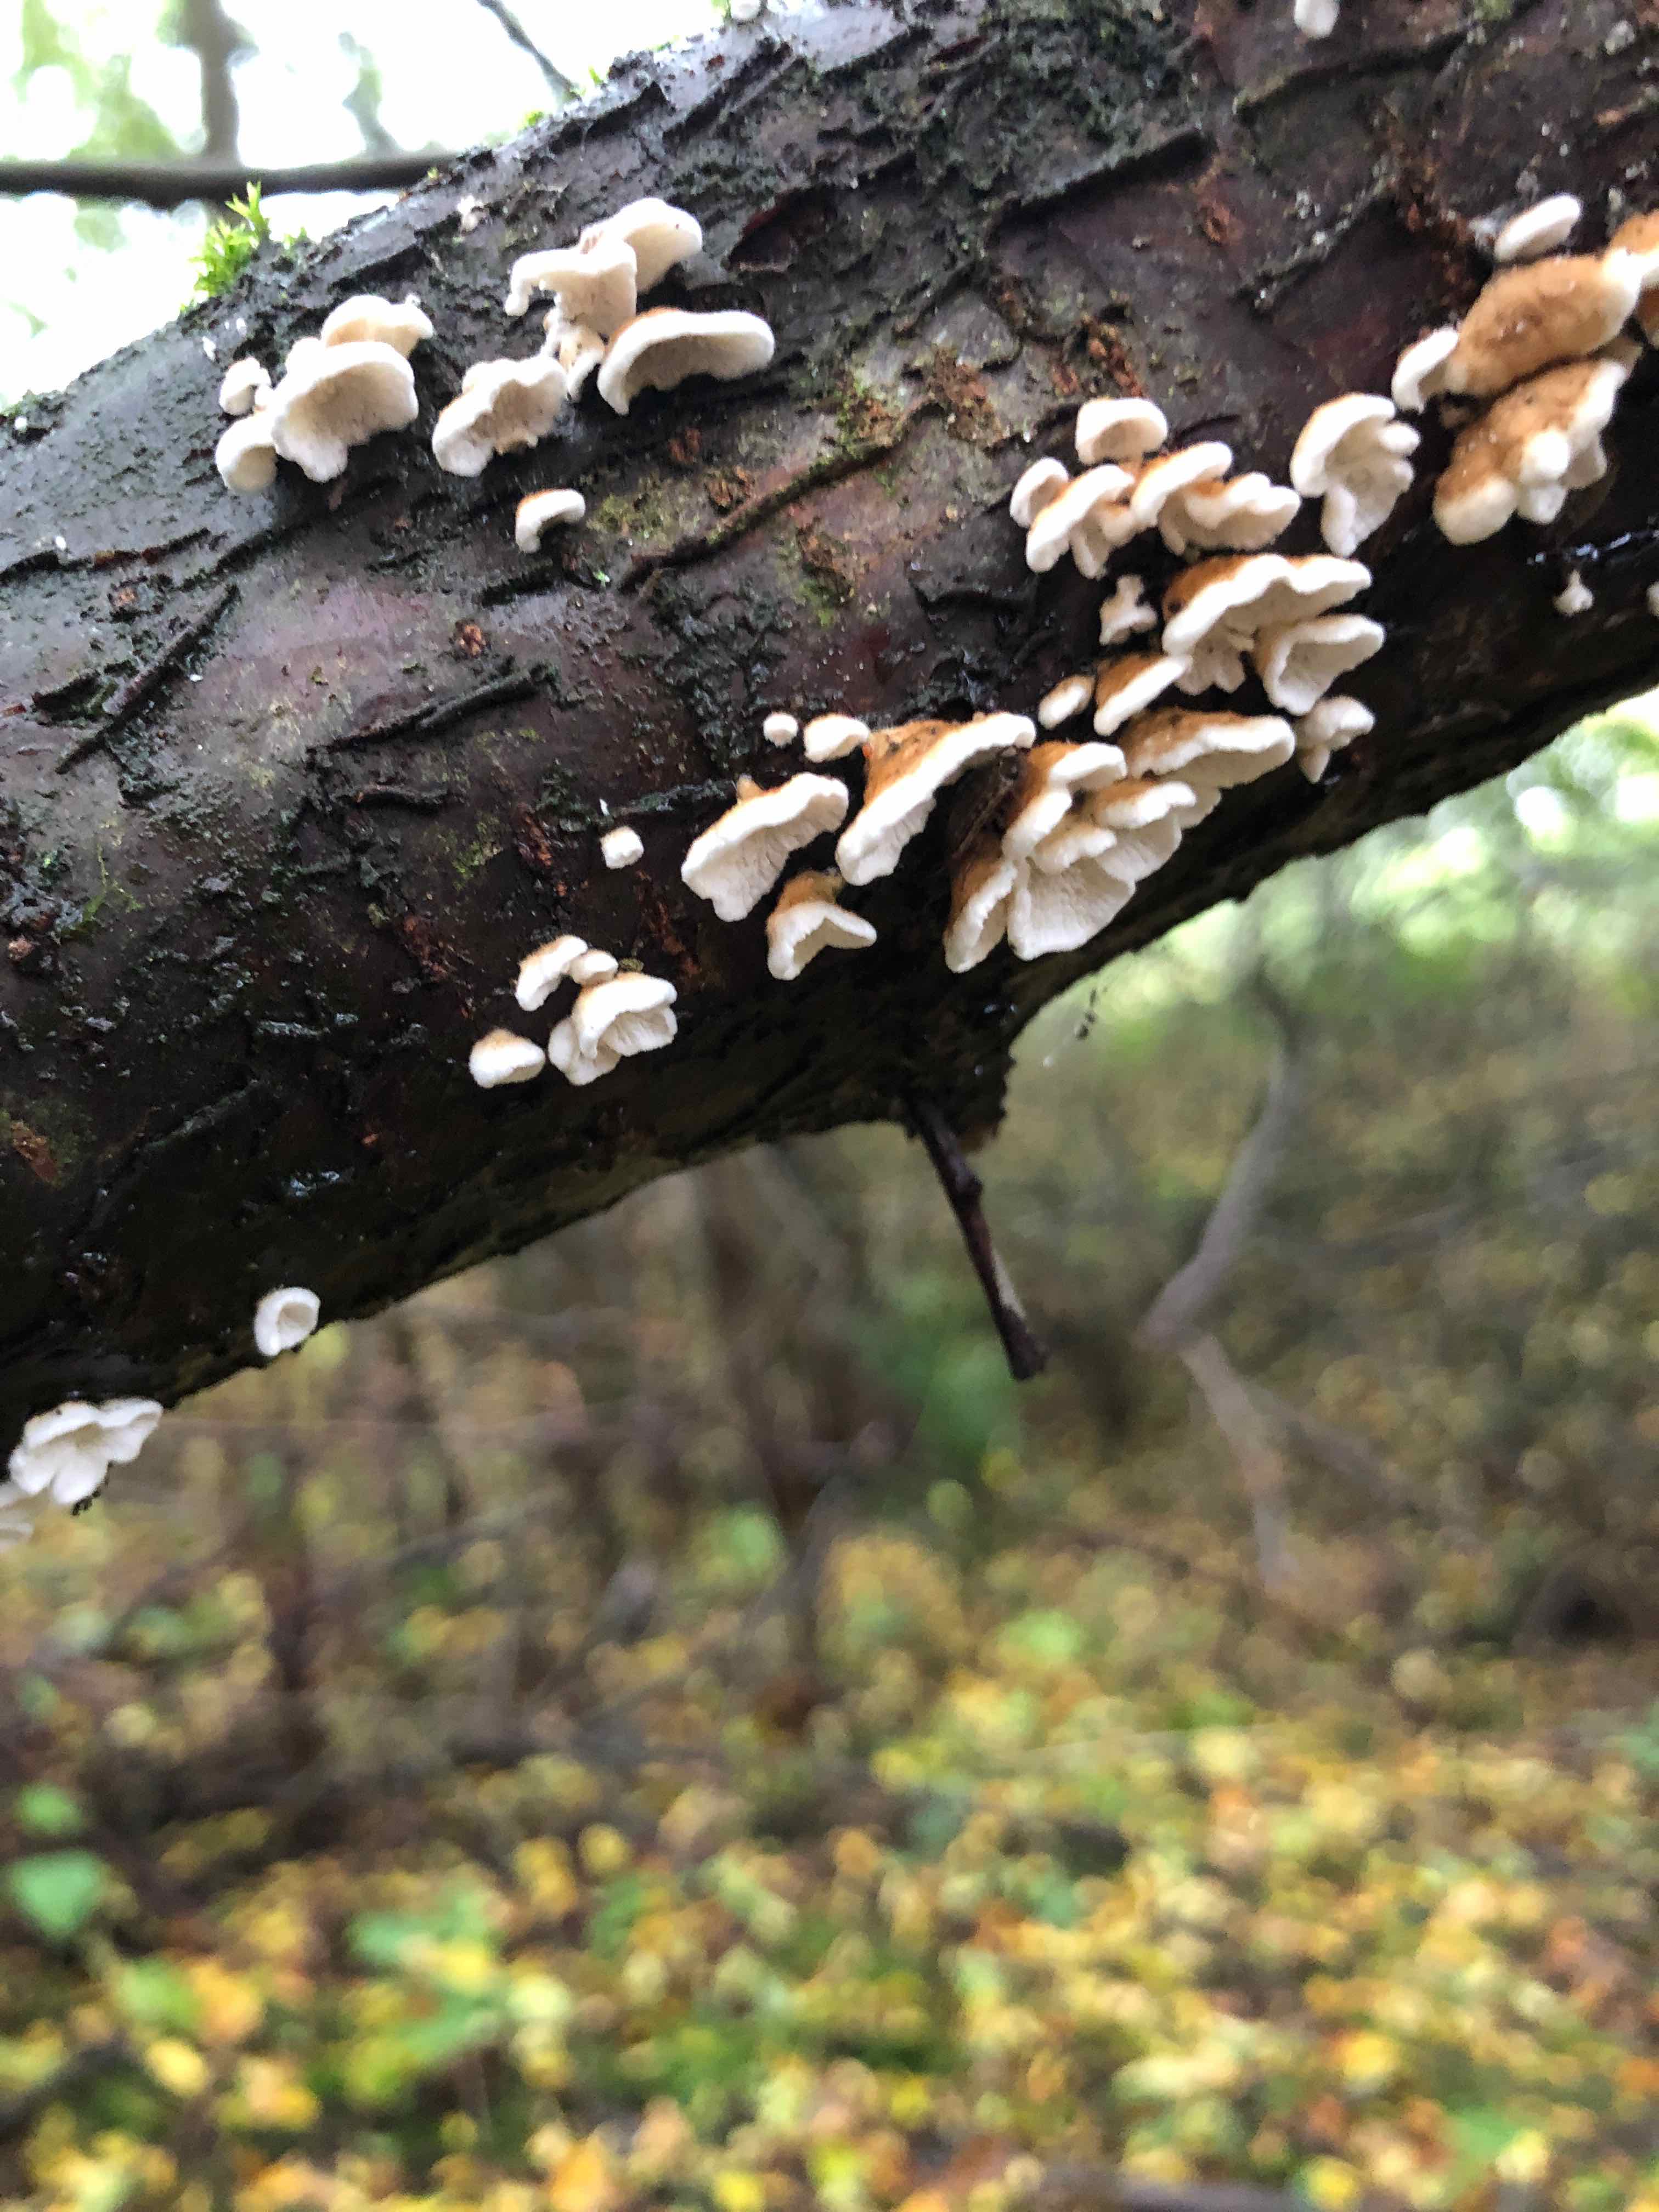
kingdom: Fungi
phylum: Basidiomycota
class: Agaricomycetes
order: Amylocorticiales
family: Amylocorticiaceae
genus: Plicaturopsis
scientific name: Plicaturopsis crispa
